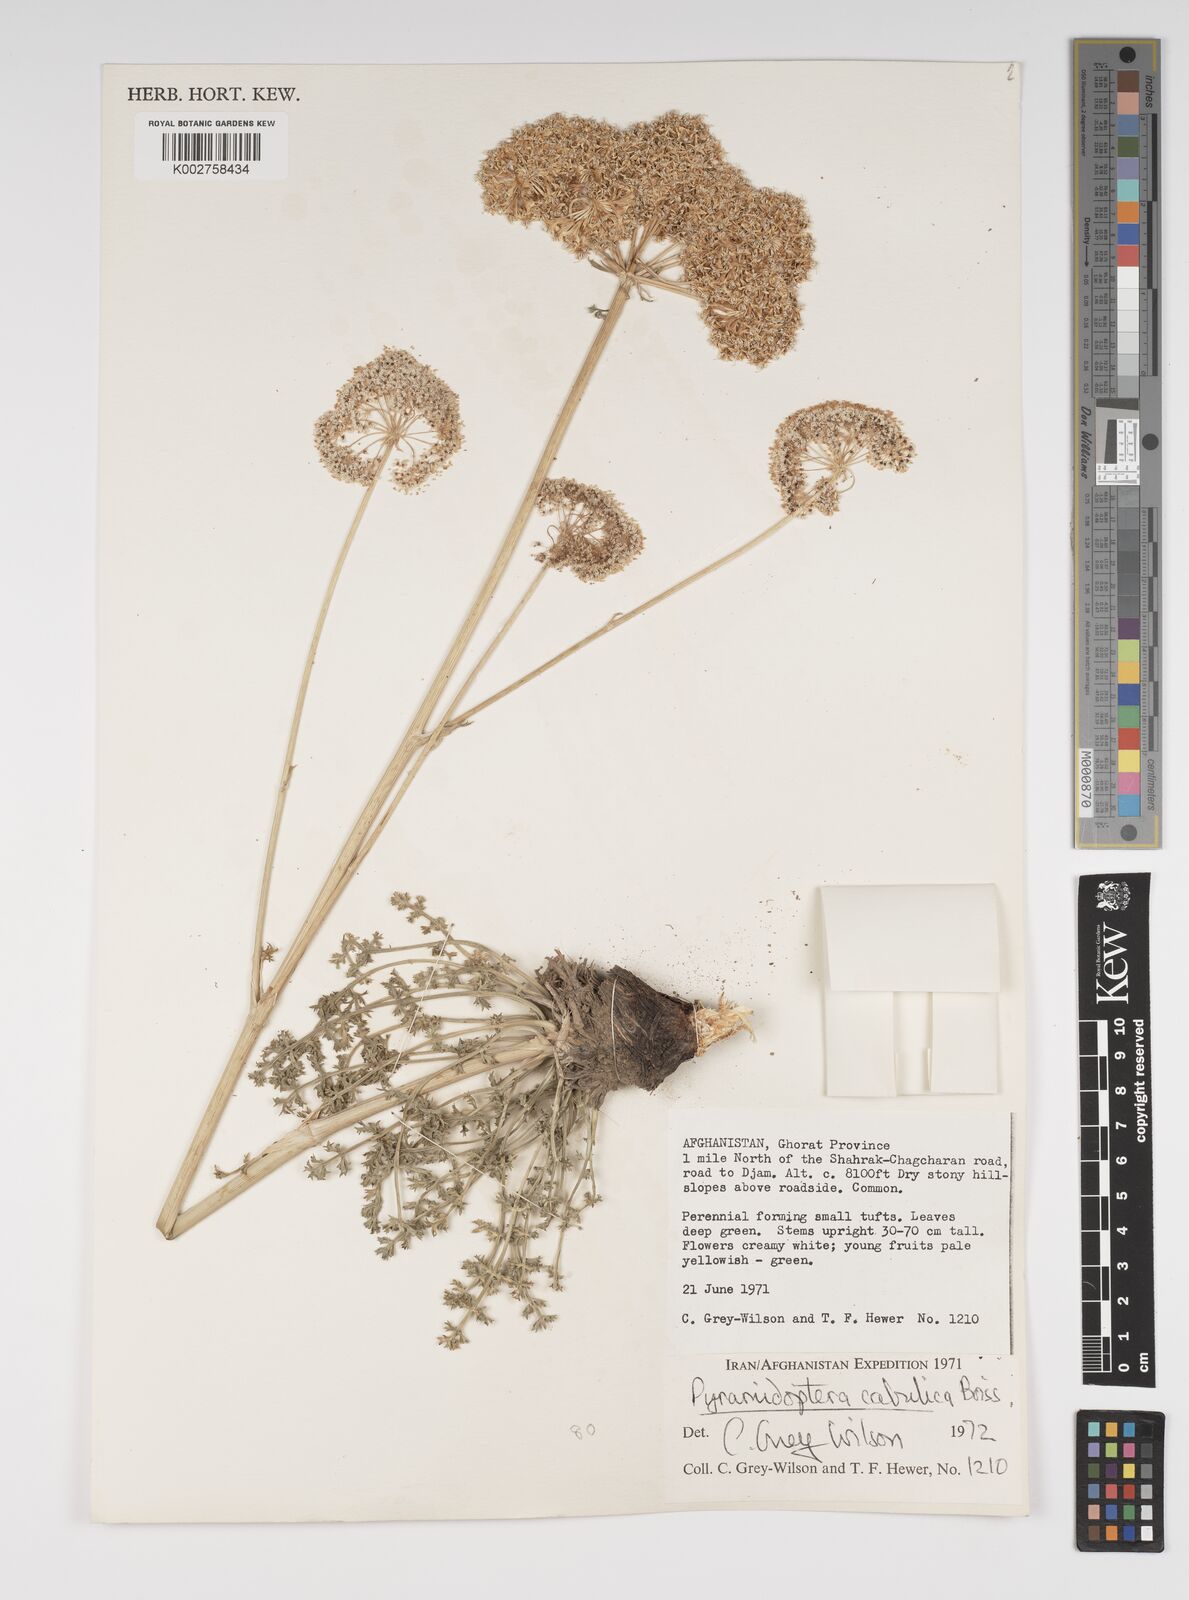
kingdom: Plantae
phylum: Tracheophyta
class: Magnoliopsida
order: Apiales
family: Apiaceae
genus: Pyramidoptera
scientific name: Pyramidoptera cabulica
